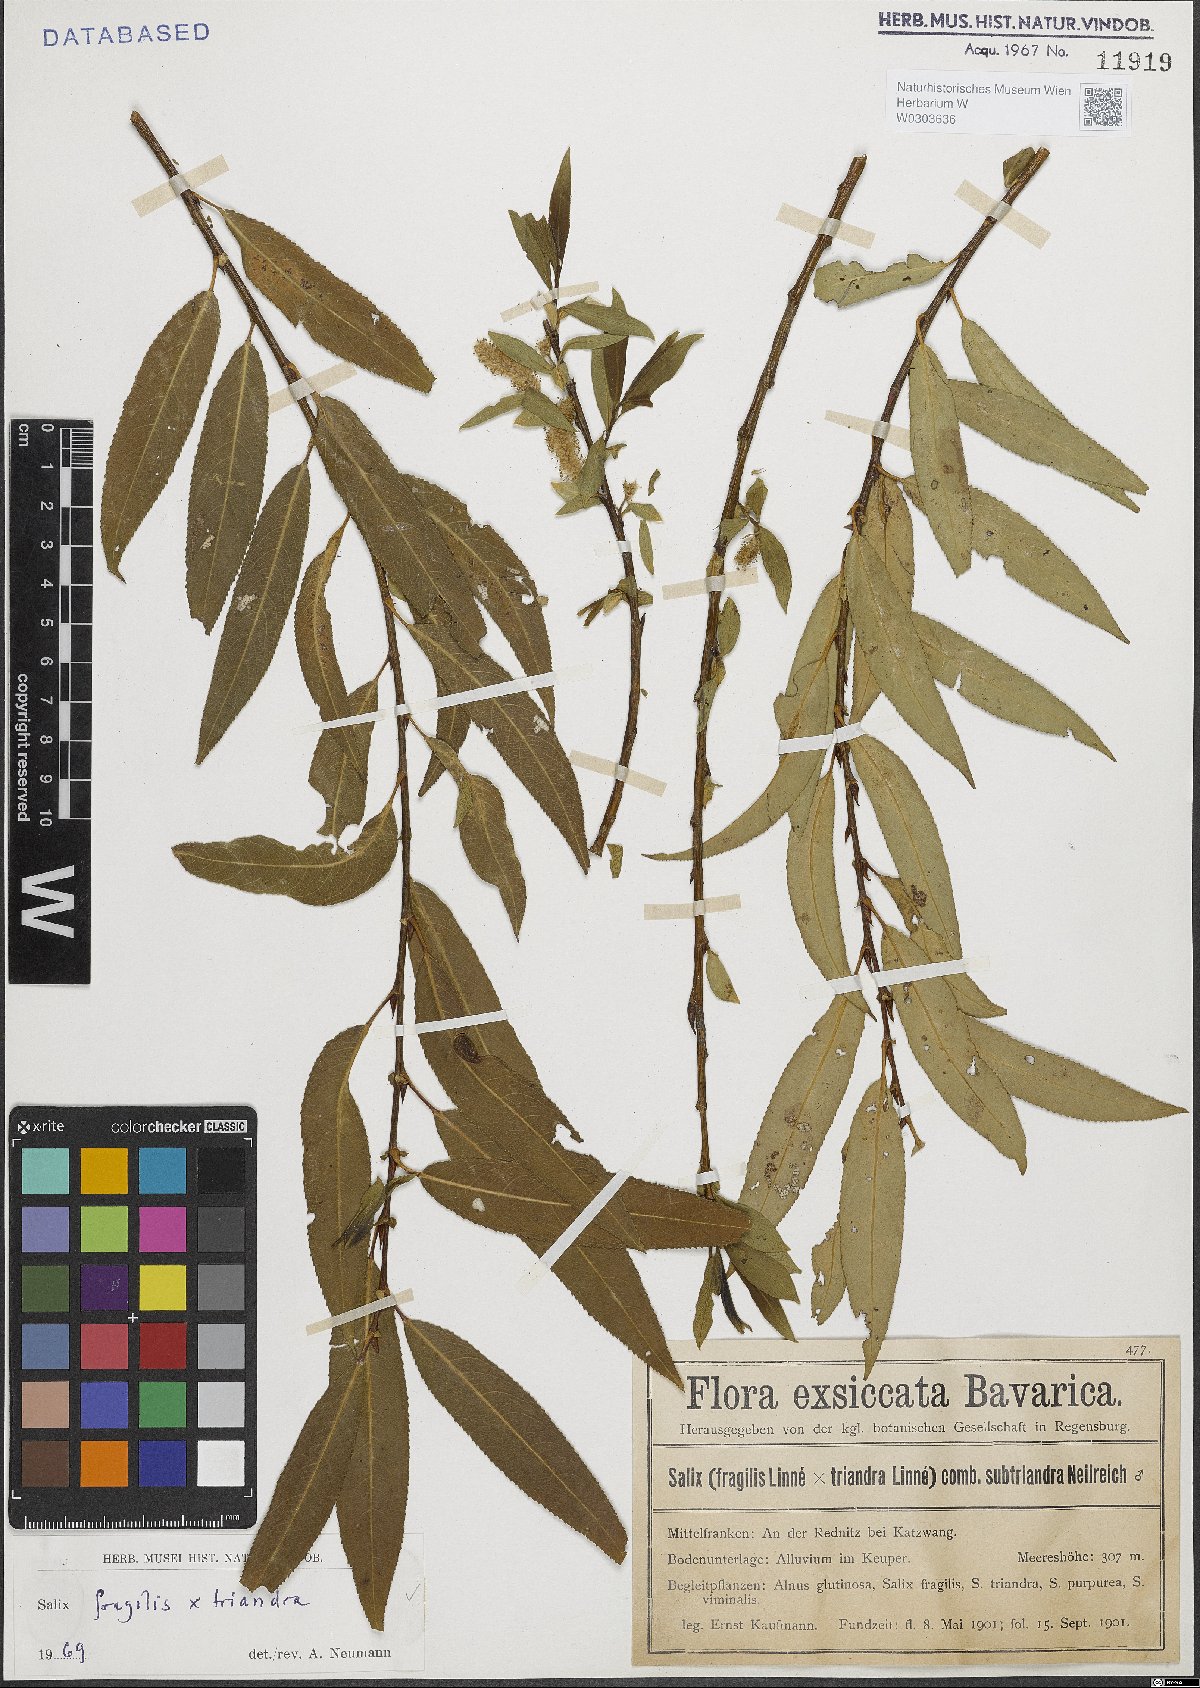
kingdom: Plantae
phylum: Tracheophyta
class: Magnoliopsida
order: Malpighiales
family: Salicaceae
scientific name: Salicaceae
